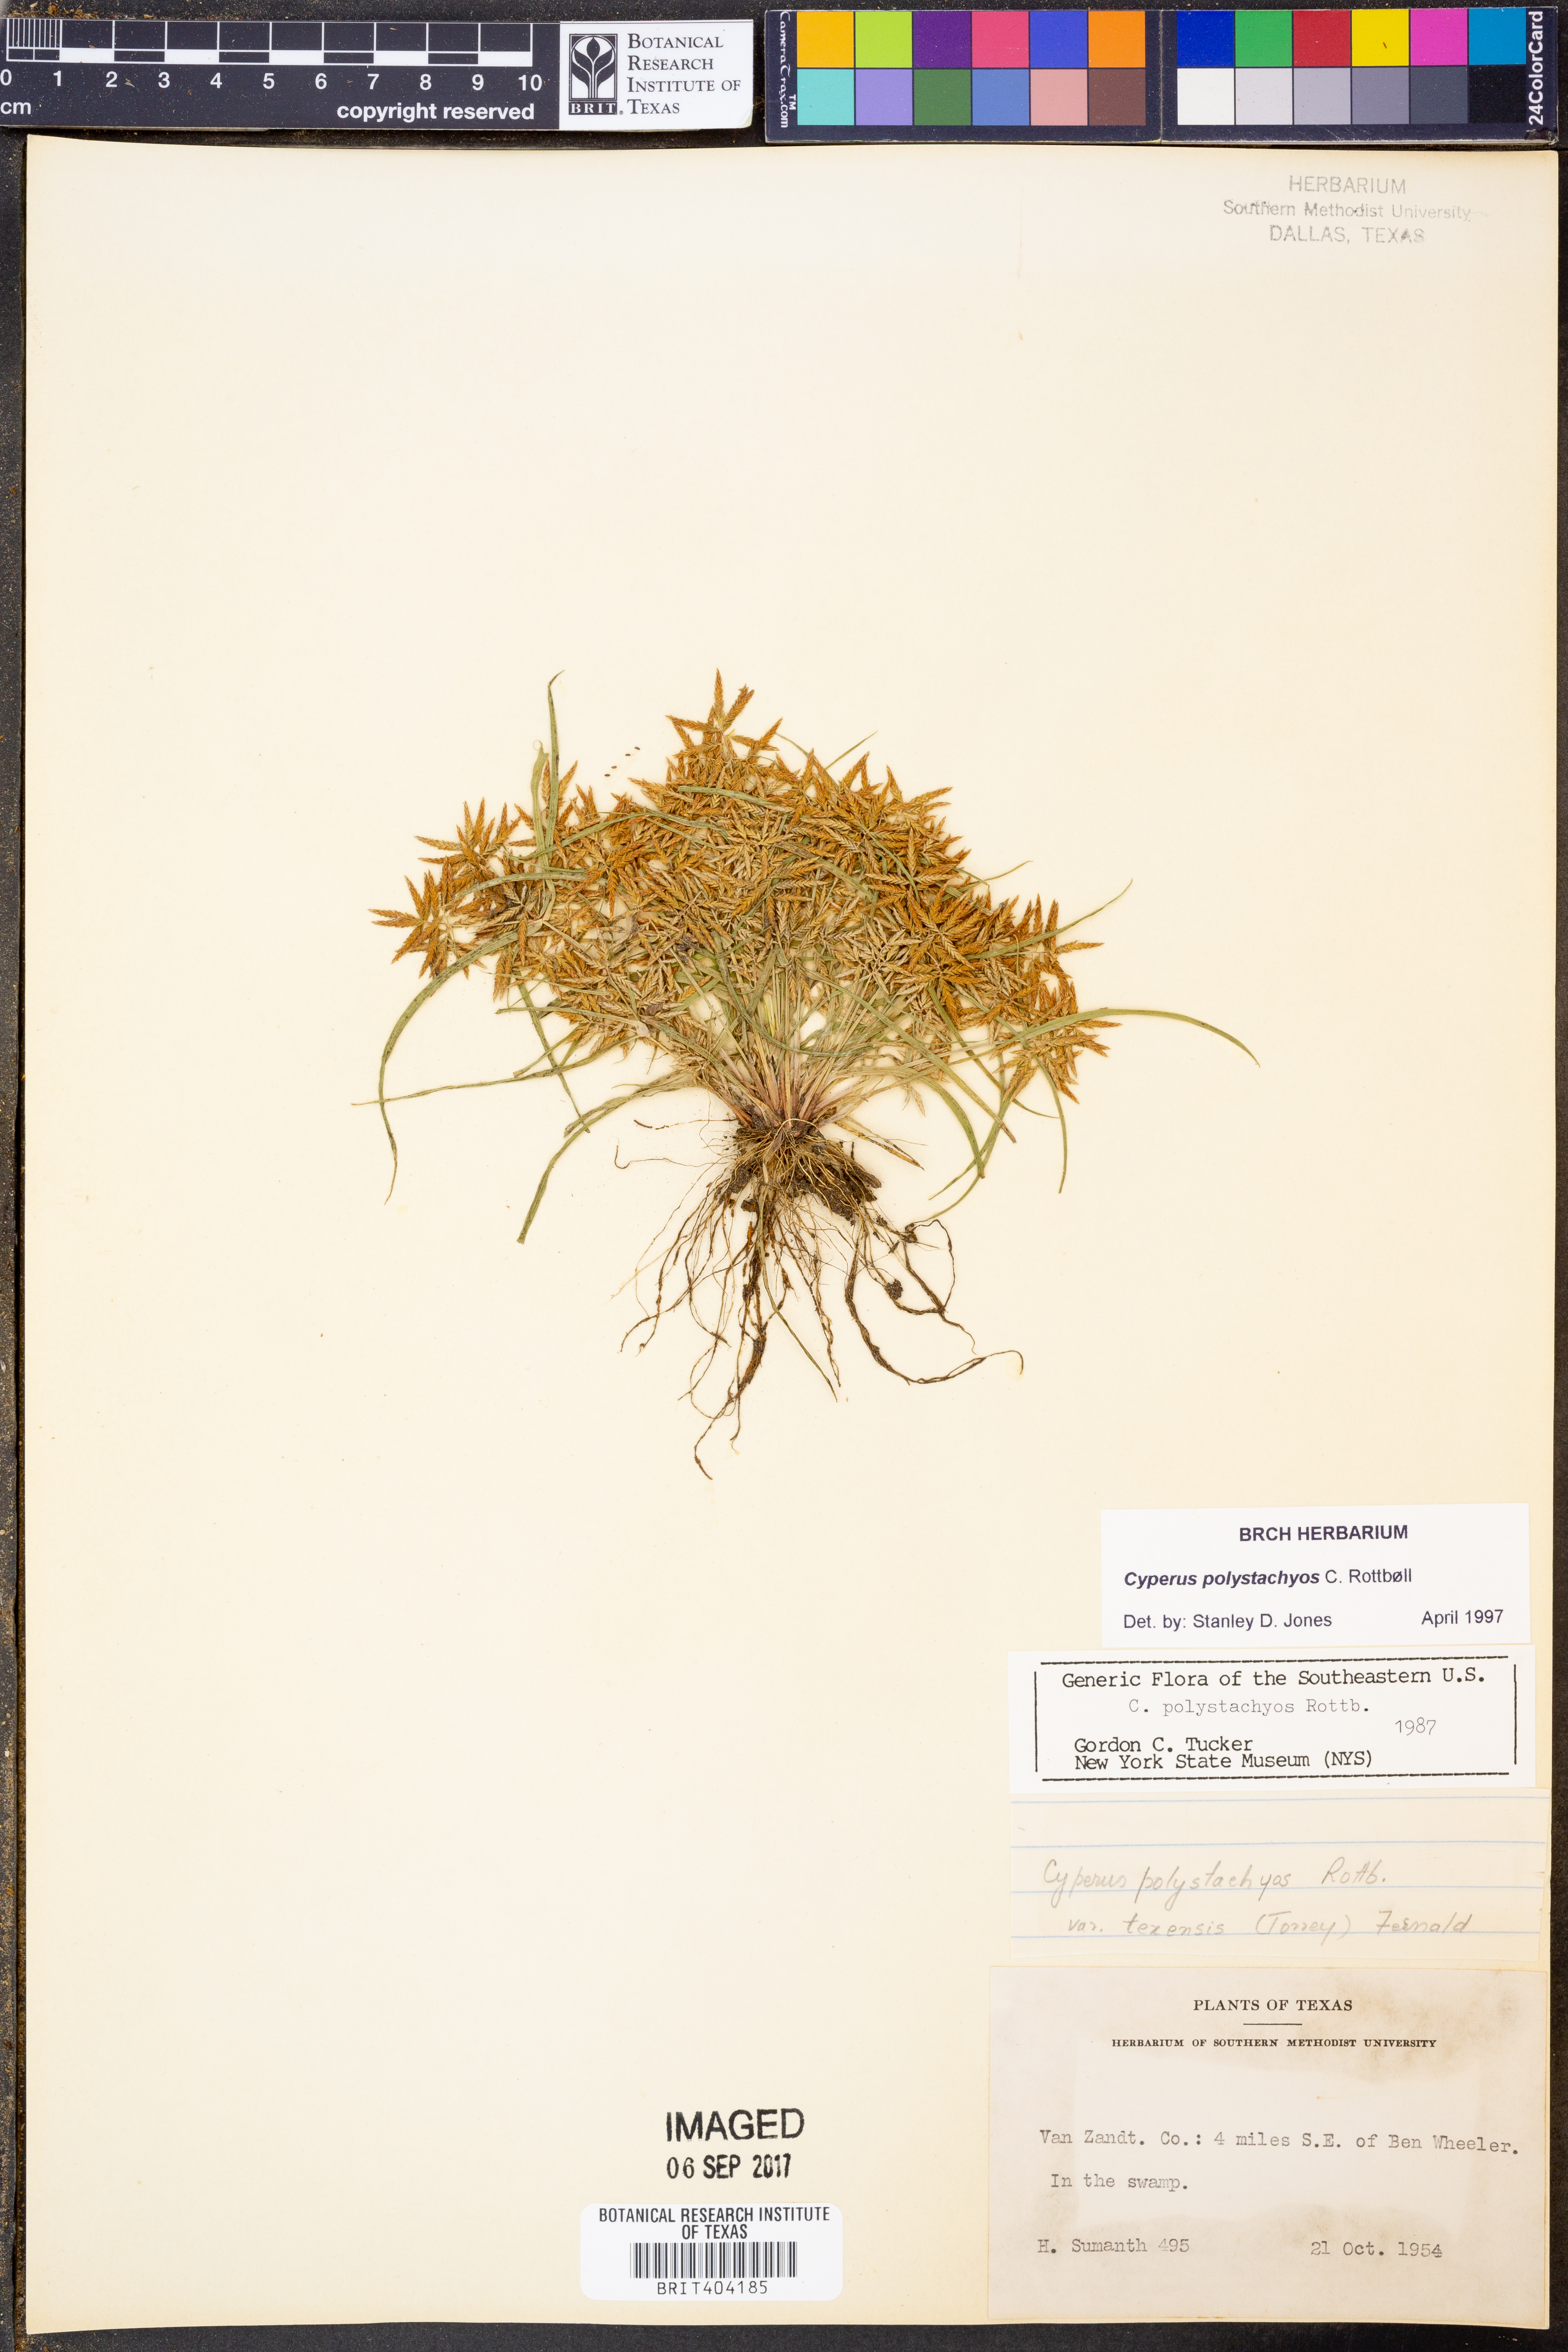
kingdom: Plantae
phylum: Tracheophyta
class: Liliopsida
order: Poales
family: Cyperaceae
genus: Cyperus
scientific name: Cyperus polystachyos
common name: Bunchy flat sedge
